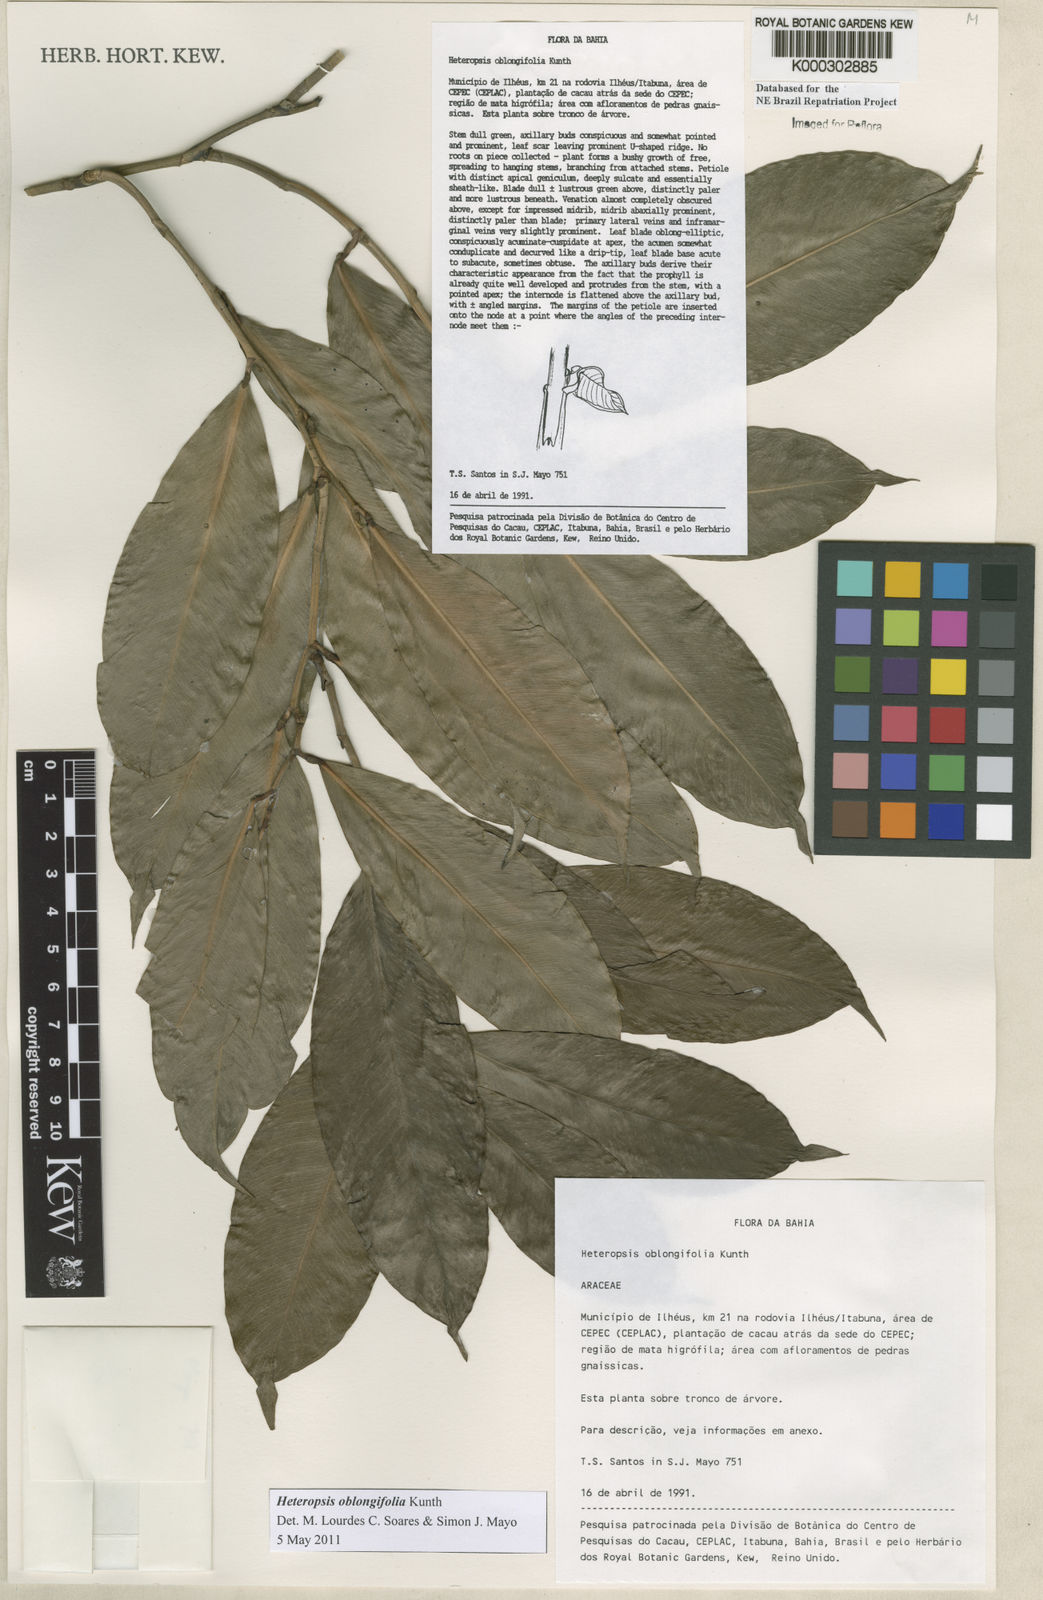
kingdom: Plantae
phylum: Tracheophyta
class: Liliopsida
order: Alismatales
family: Araceae
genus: Heteropsis
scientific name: Heteropsis oblongifolia
